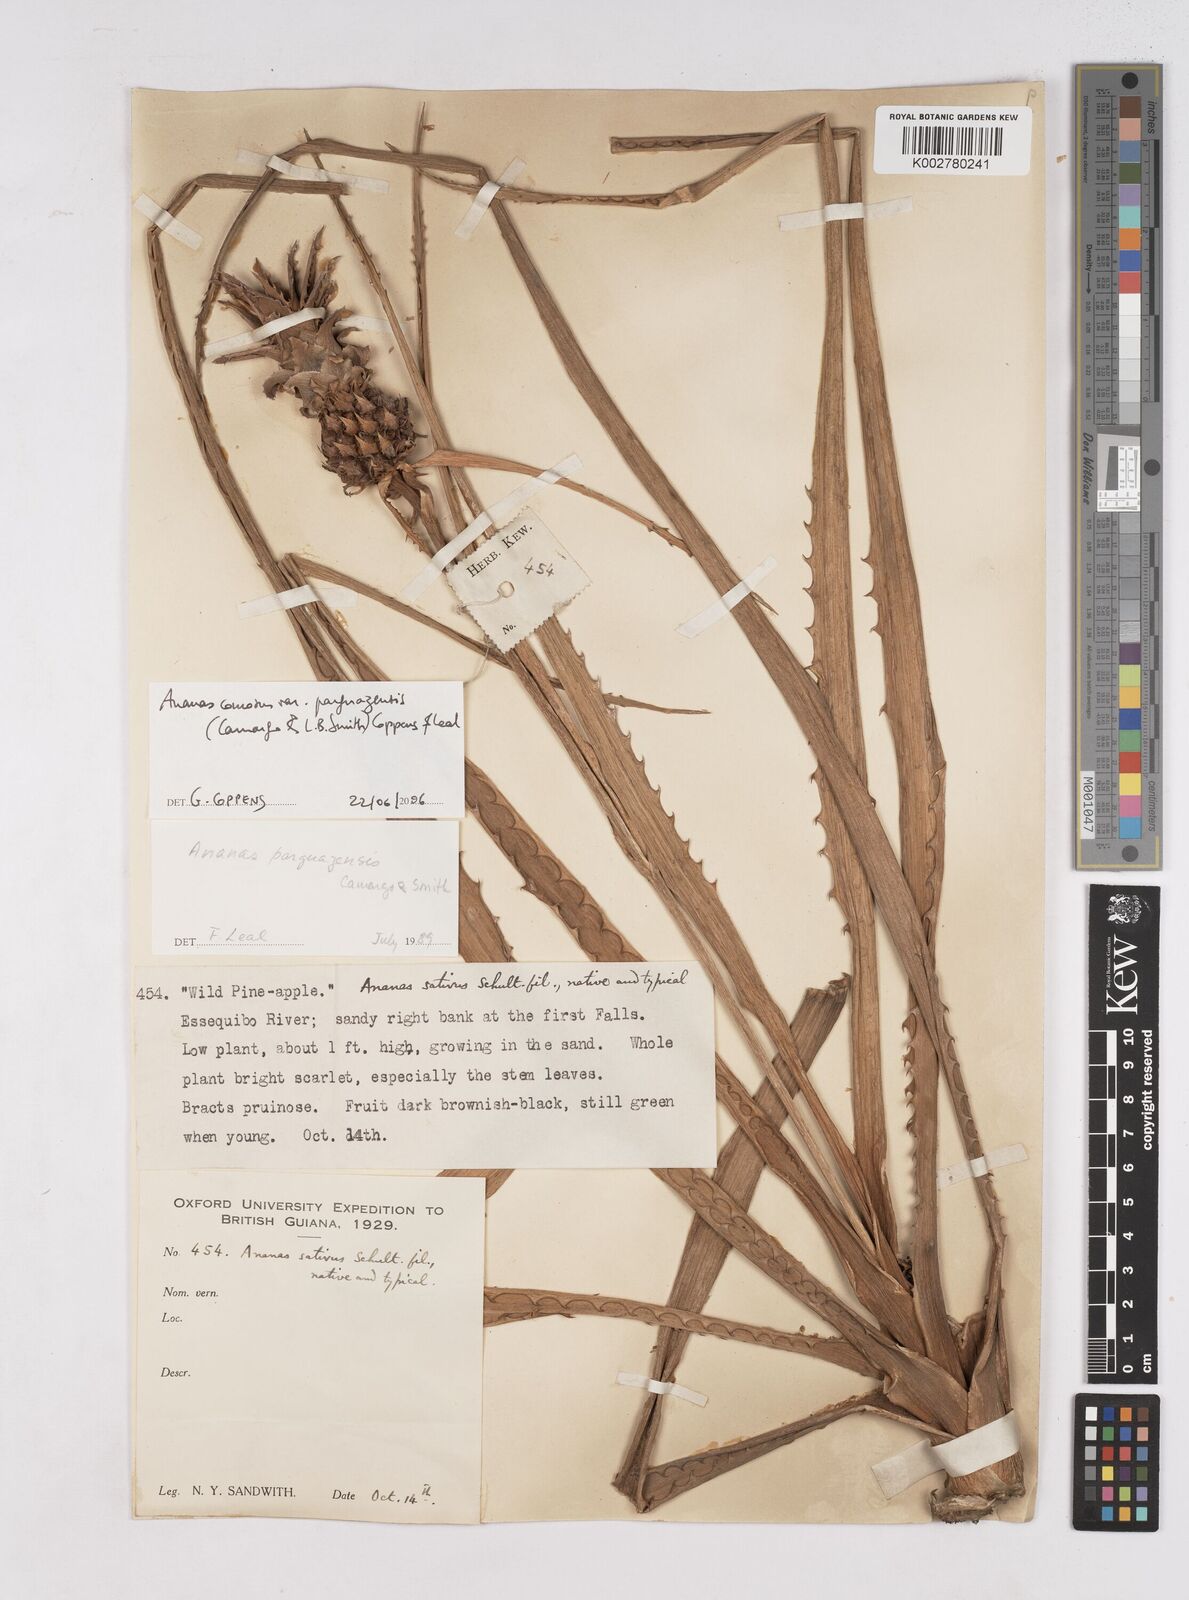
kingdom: Plantae
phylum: Tracheophyta
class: Liliopsida
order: Poales
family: Bromeliaceae
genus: Ananas
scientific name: Ananas comosus
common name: Pineapple
